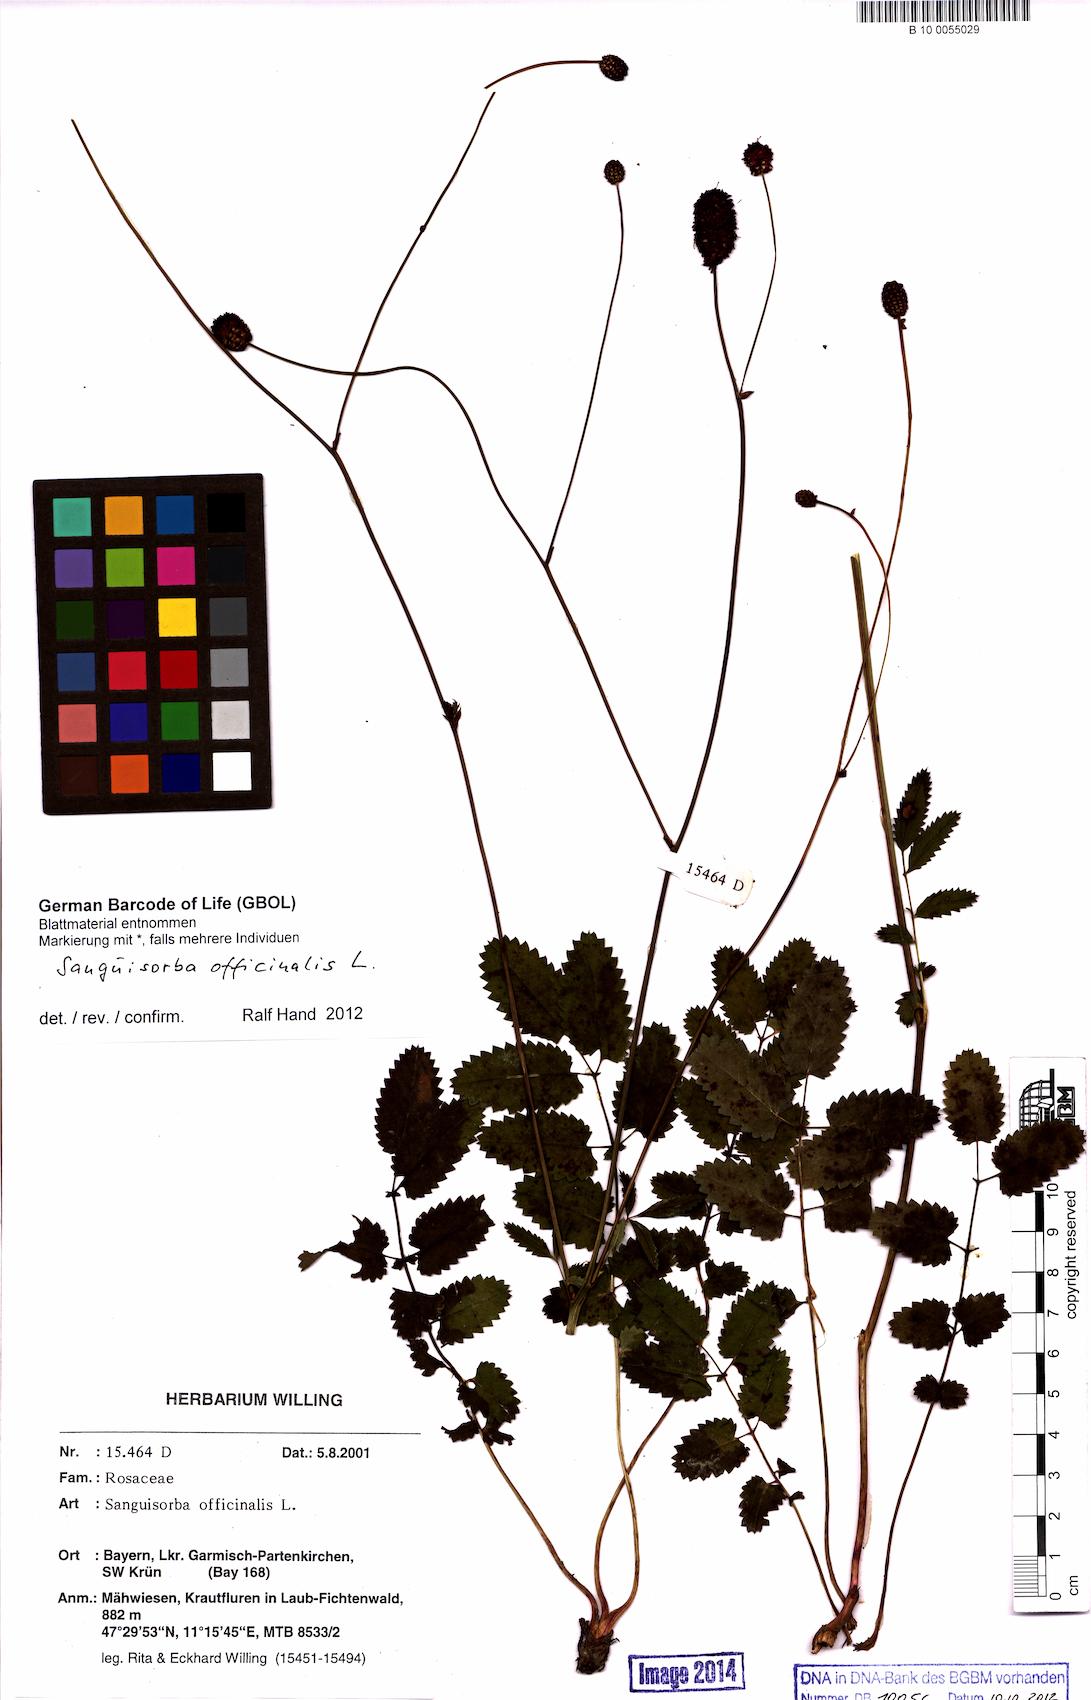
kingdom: Plantae
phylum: Tracheophyta
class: Magnoliopsida
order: Rosales
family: Rosaceae
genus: Sanguisorba
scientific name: Sanguisorba officinalis
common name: Great burnet
